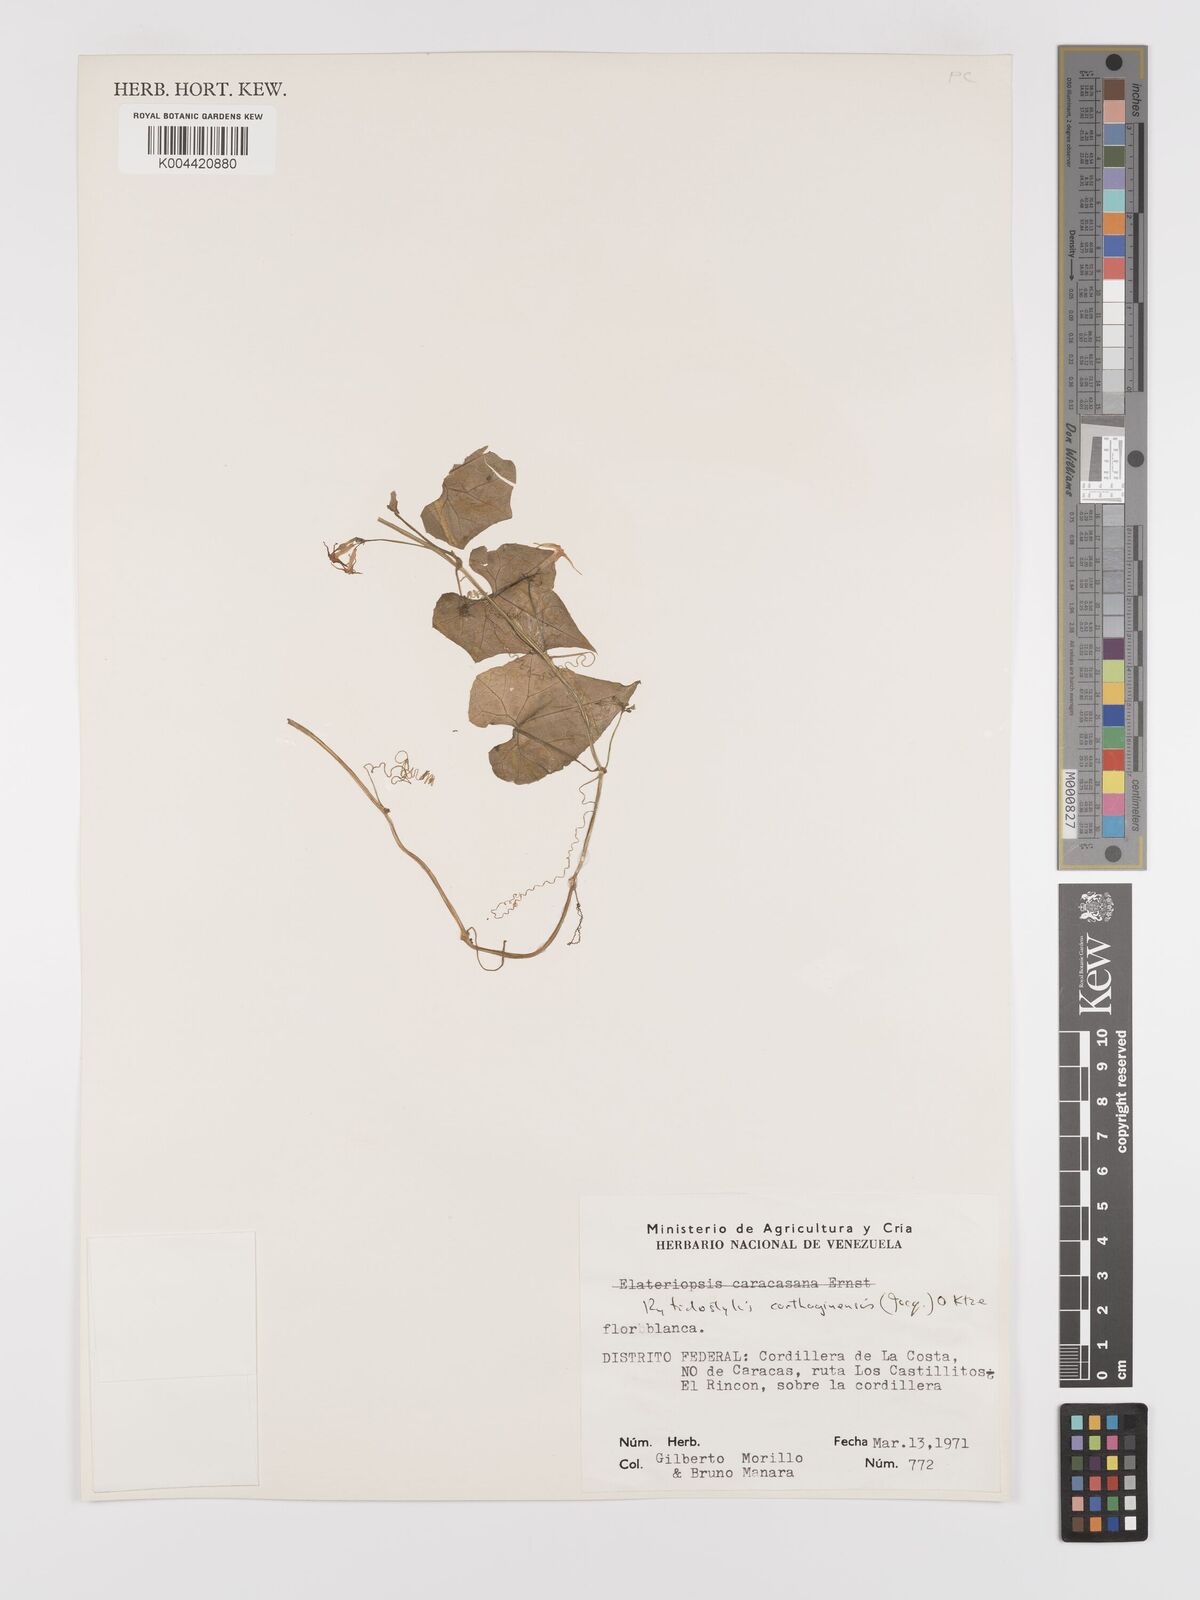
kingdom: Plantae
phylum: Tracheophyta
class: Magnoliopsida
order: Cucurbitales
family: Cucurbitaceae
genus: Cyclanthera
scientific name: Cyclanthera carthagenensis
